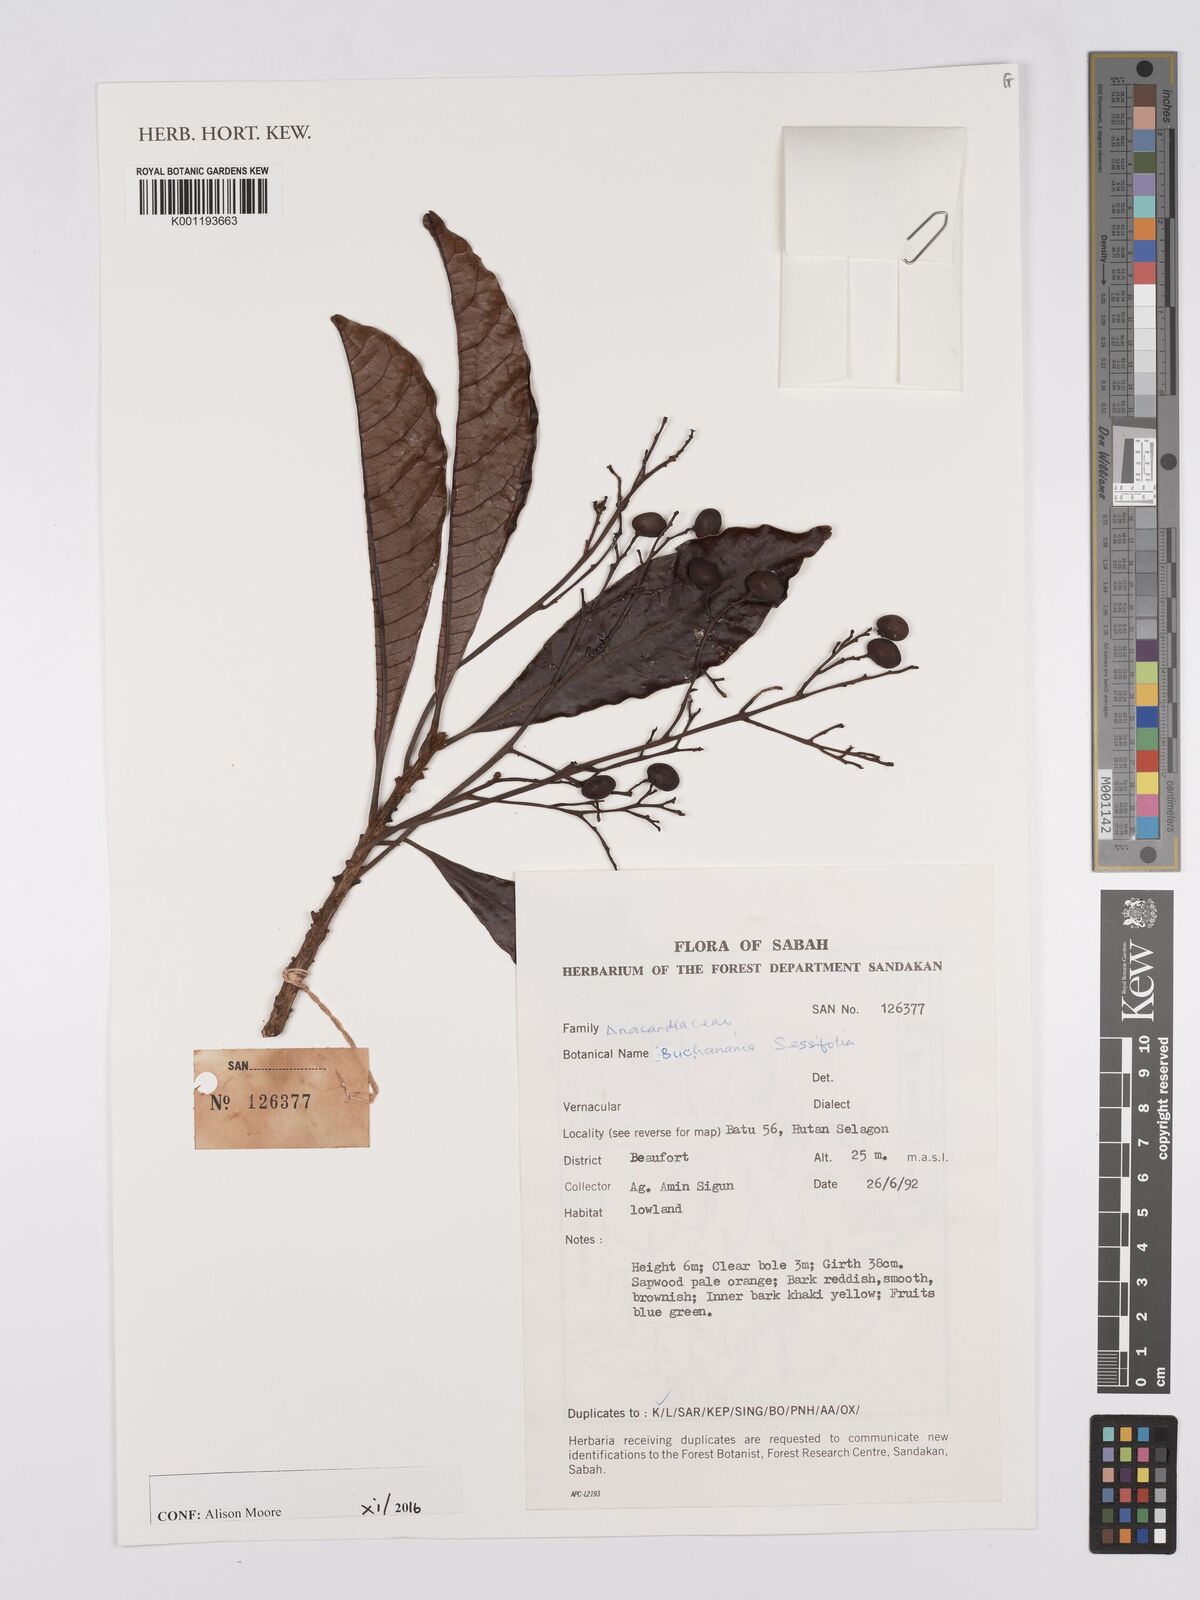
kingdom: Plantae
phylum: Tracheophyta
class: Magnoliopsida
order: Sapindales
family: Anacardiaceae
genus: Buchanania
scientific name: Buchanania sessifolia
